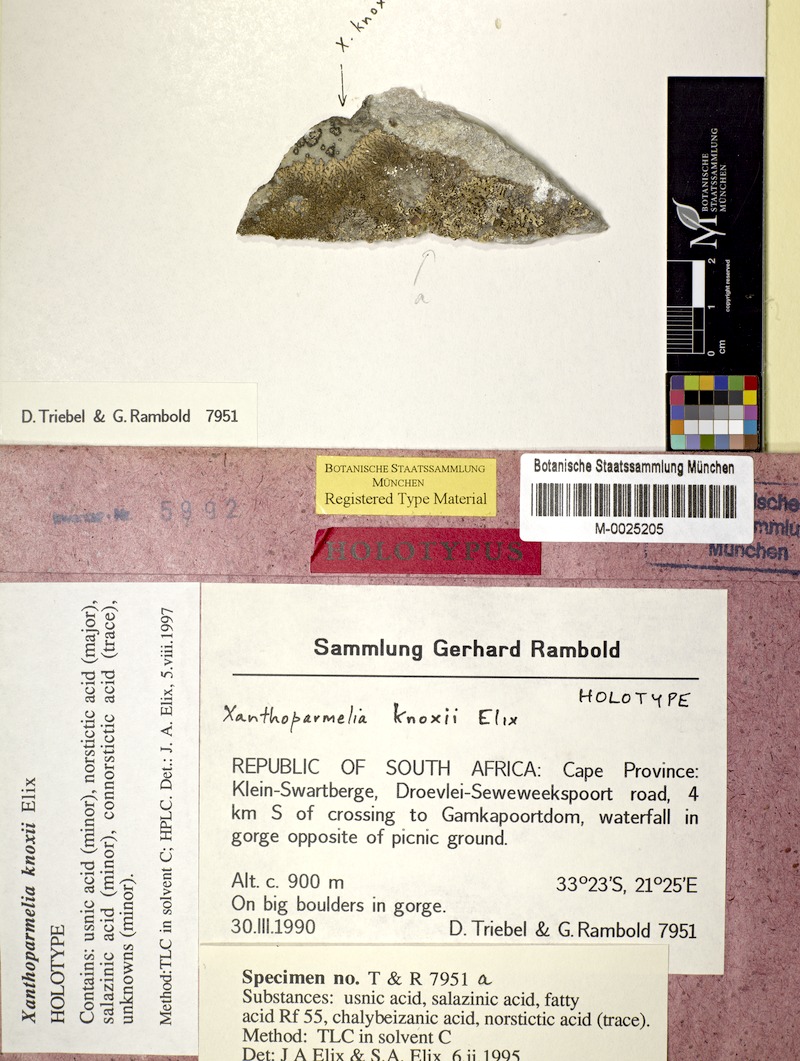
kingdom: Fungi
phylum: Ascomycota
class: Lecanoromycetes
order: Lecanorales
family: Parmeliaceae
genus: Xanthoparmelia
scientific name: Xanthoparmelia
